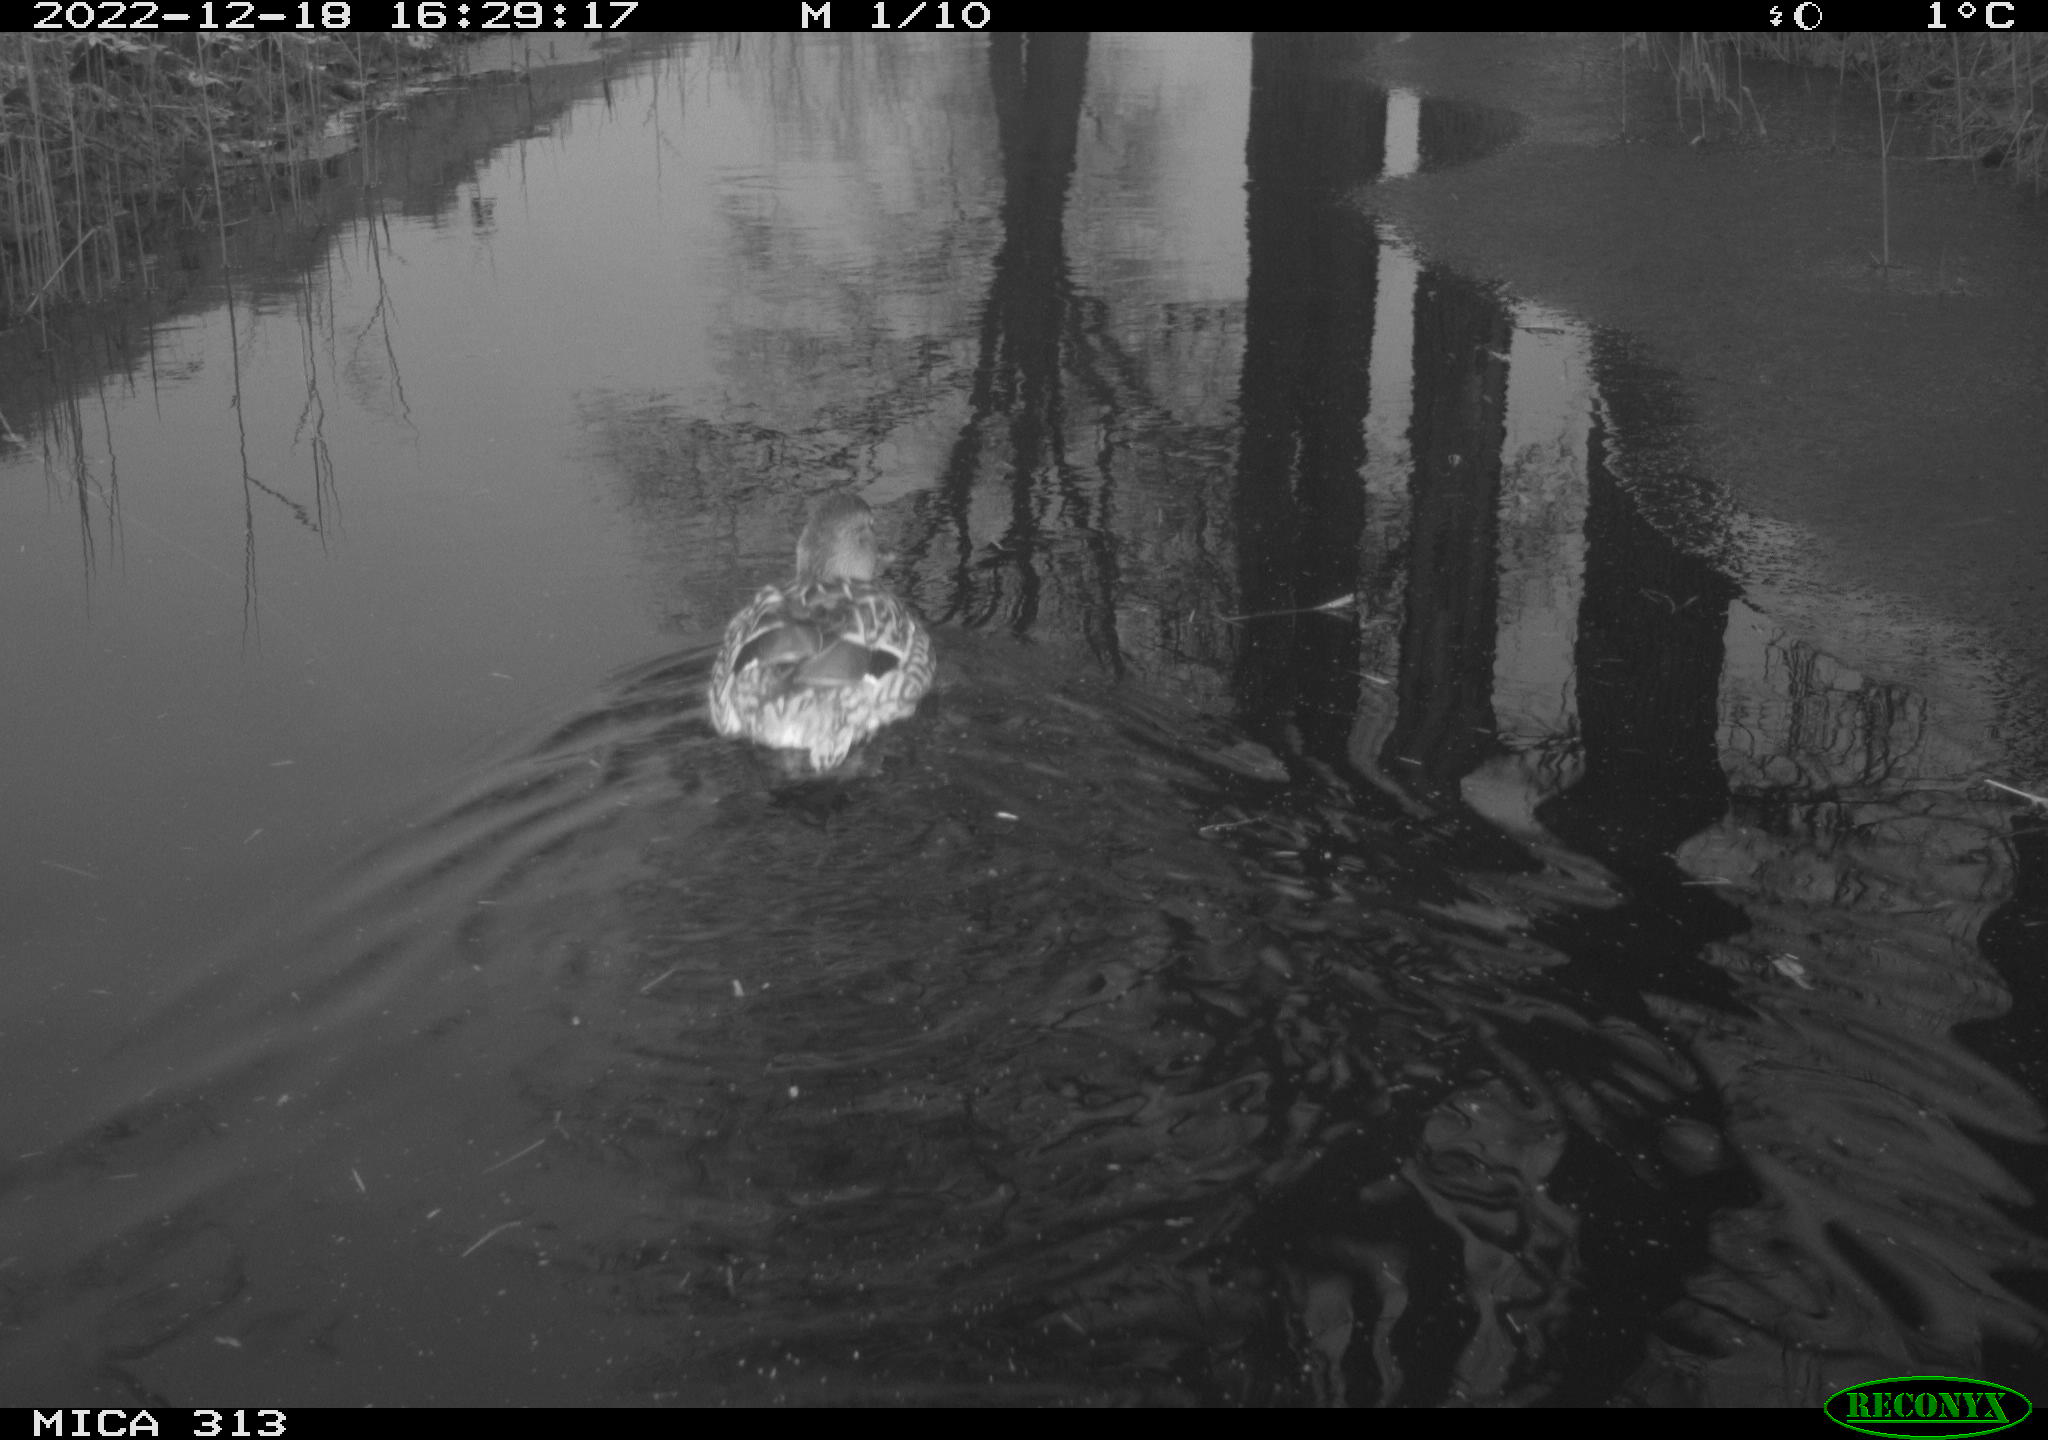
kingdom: Animalia
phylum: Chordata
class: Aves
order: Anseriformes
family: Anatidae
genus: Anas
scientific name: Anas
